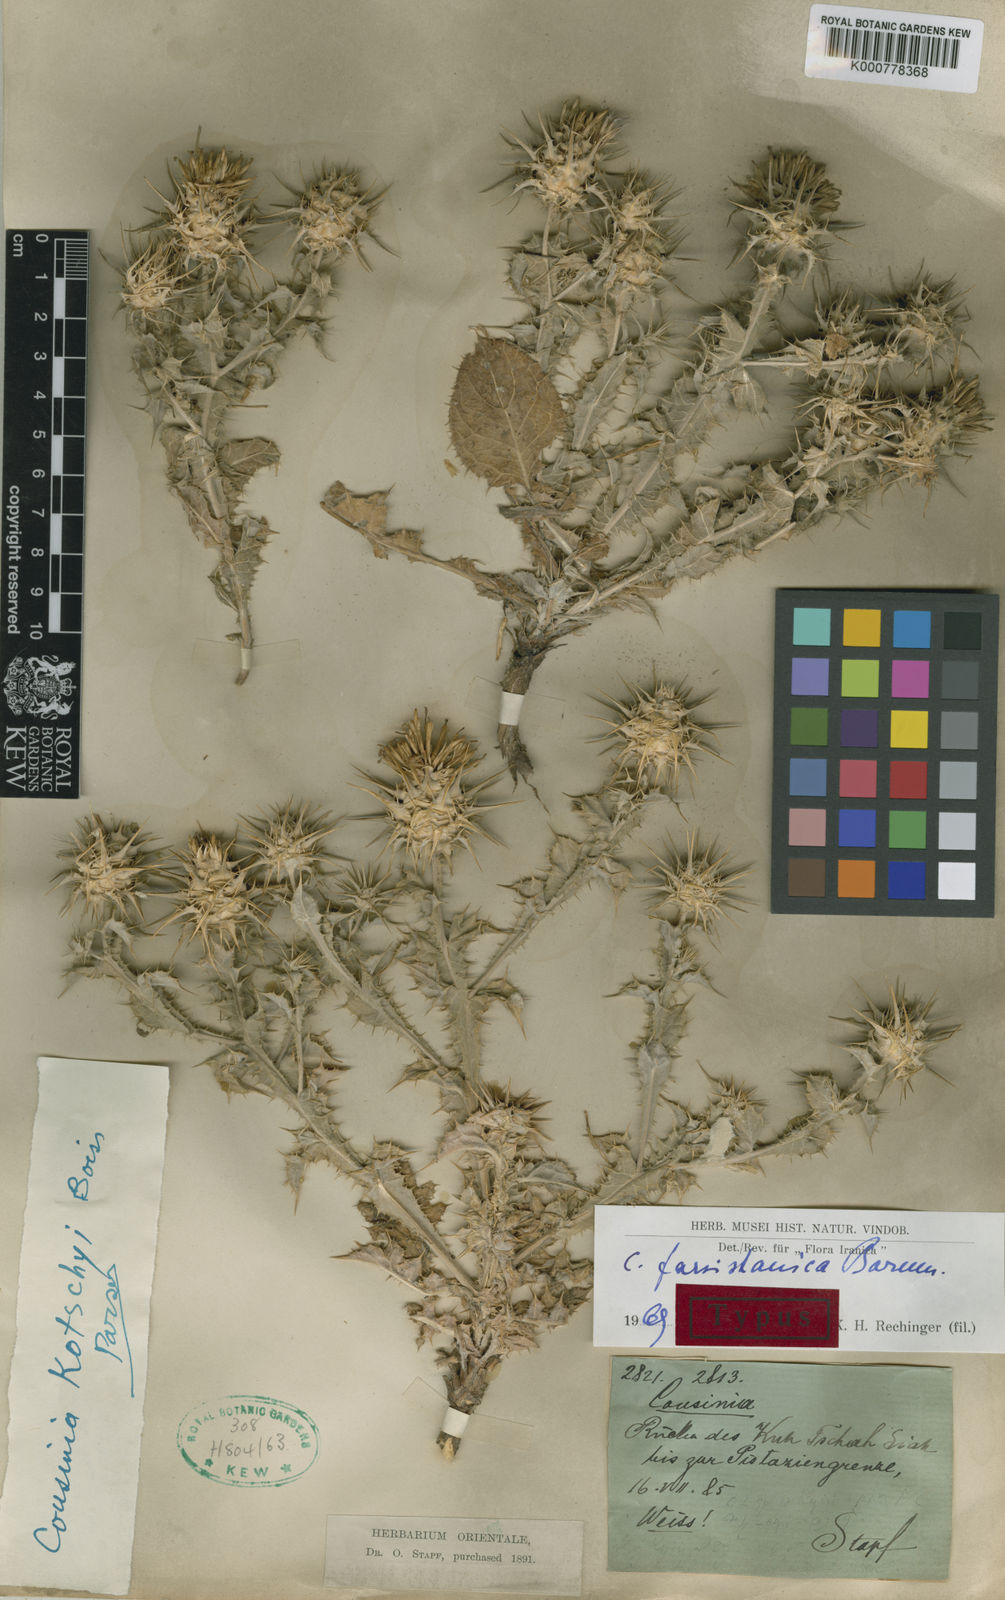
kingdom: Plantae
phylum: Tracheophyta
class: Magnoliopsida
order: Asterales
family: Asteraceae
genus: Cousinia
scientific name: Cousinia farsistanica
